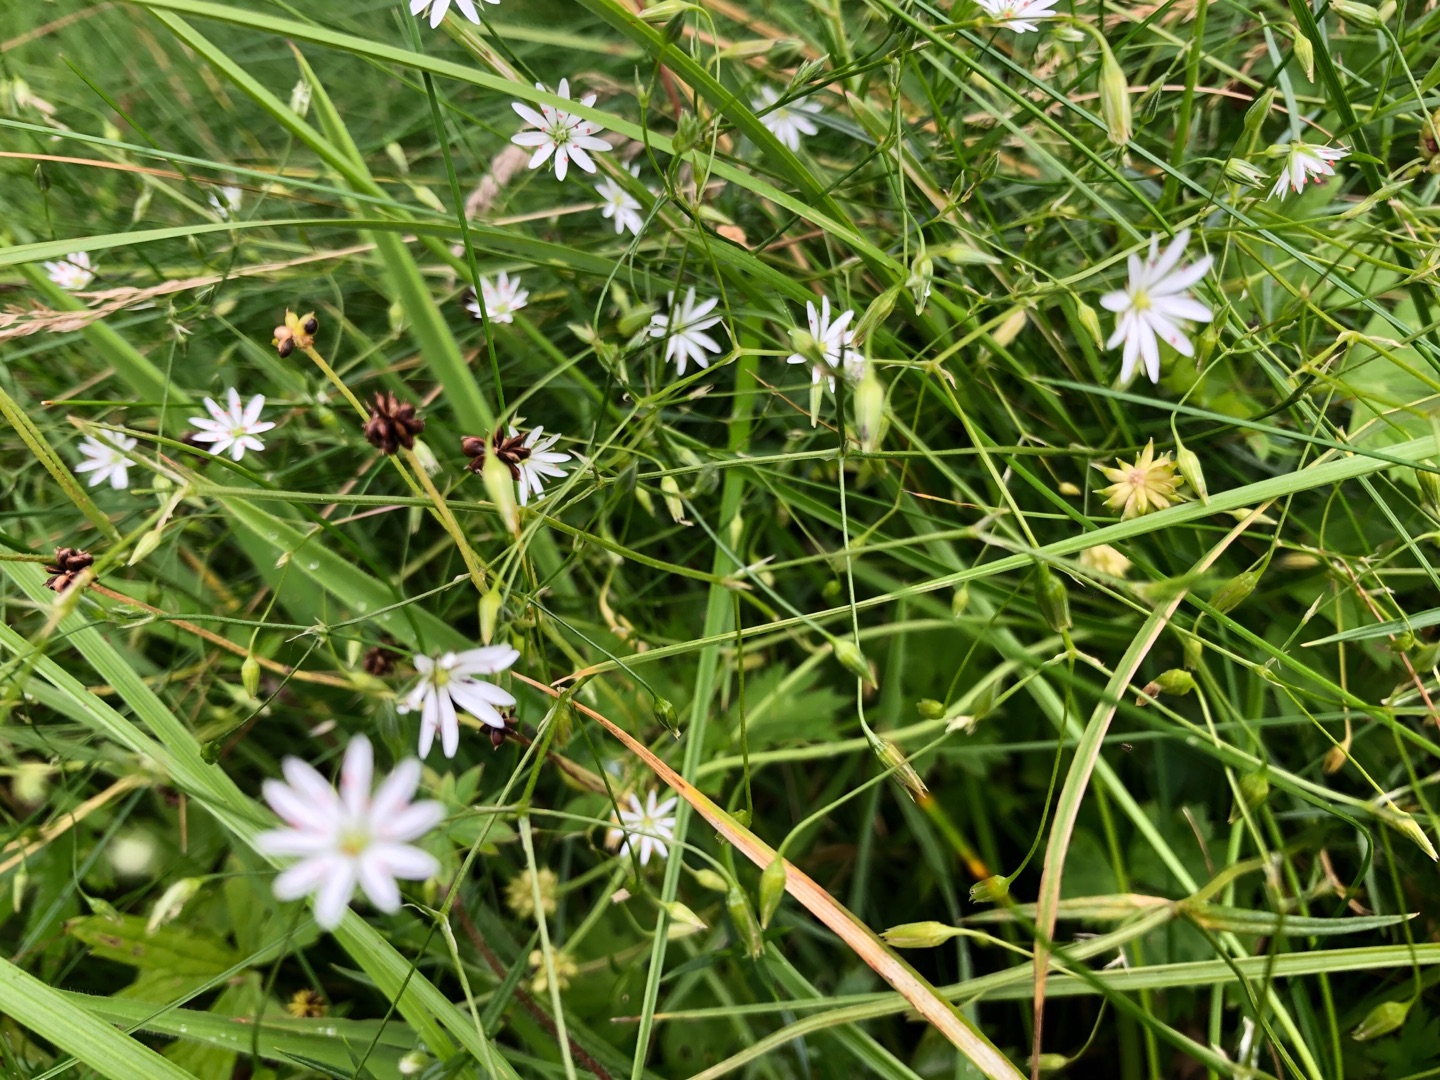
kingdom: Plantae
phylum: Tracheophyta
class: Magnoliopsida
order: Caryophyllales
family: Caryophyllaceae
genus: Stellaria
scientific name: Stellaria graminea
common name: Græsbladet fladstjerne
